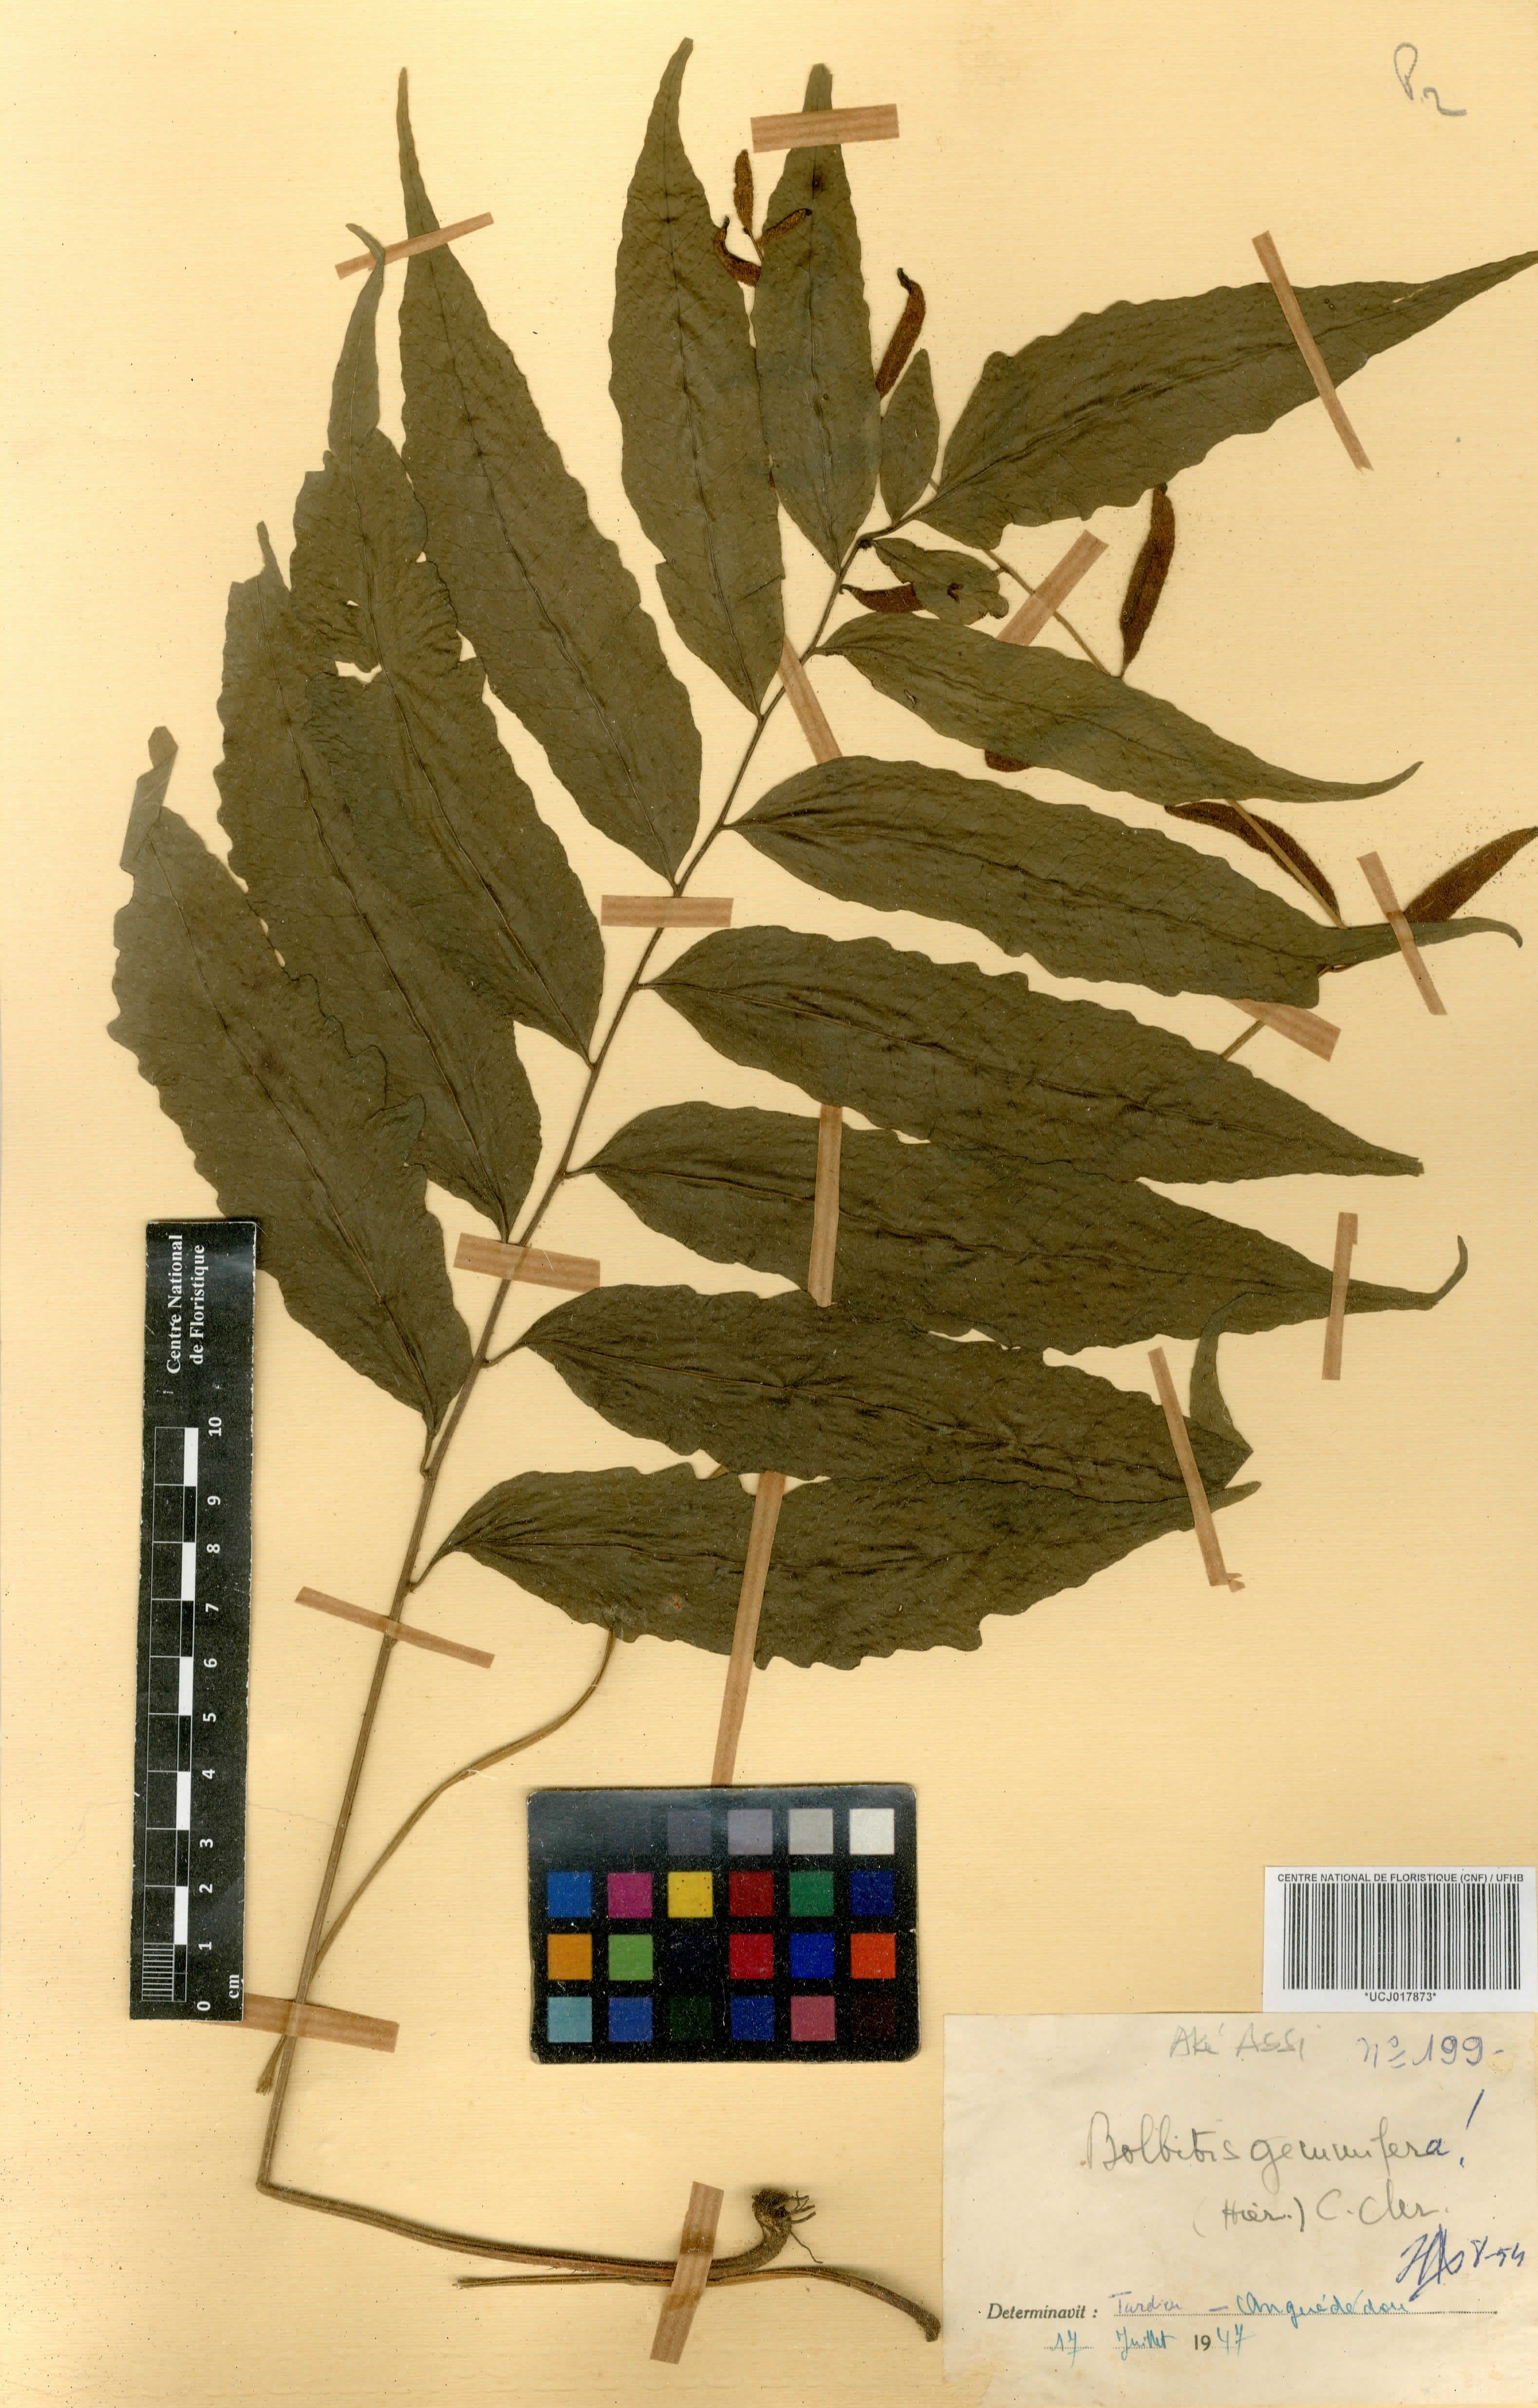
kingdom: Plantae
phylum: Tracheophyta
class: Polypodiopsida
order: Polypodiales
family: Dryopteridaceae
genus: Bolbitis
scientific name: Bolbitis gemmifer
